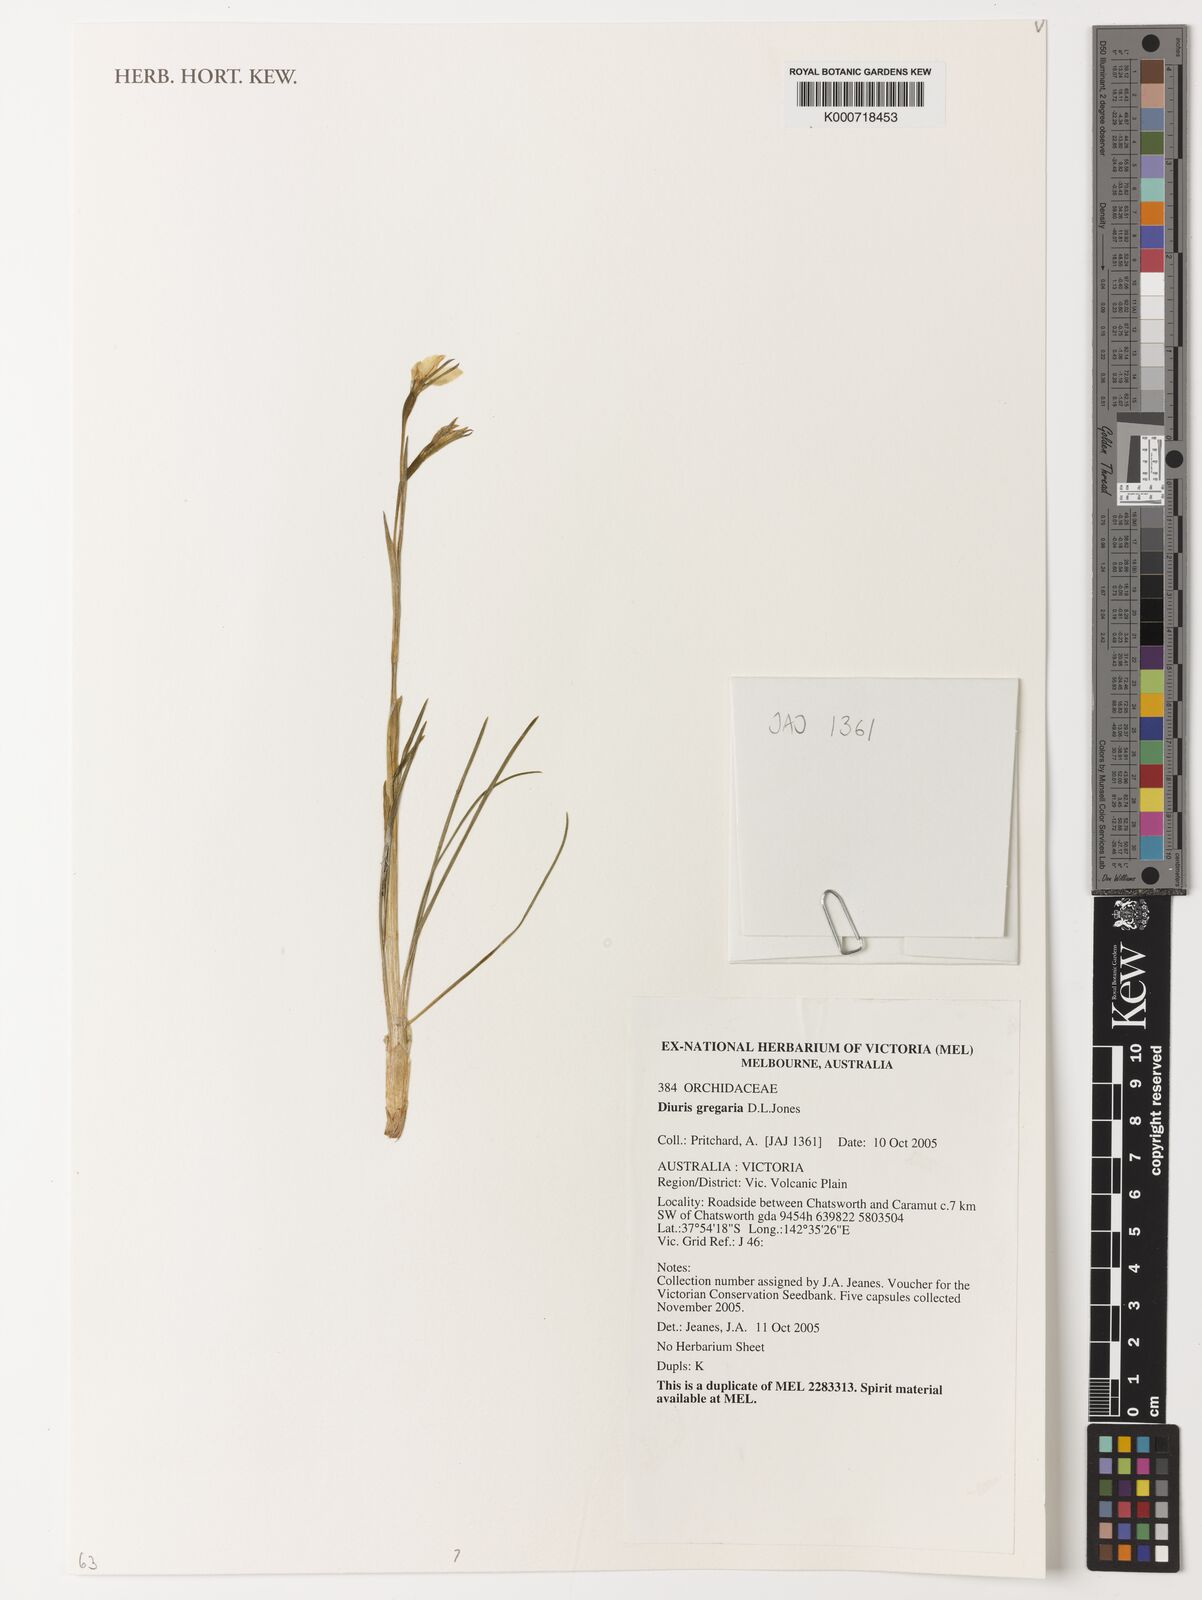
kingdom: Plantae
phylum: Tracheophyta
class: Liliopsida
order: Asparagales
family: Orchidaceae
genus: Diuris
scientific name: Diuris gregaria
